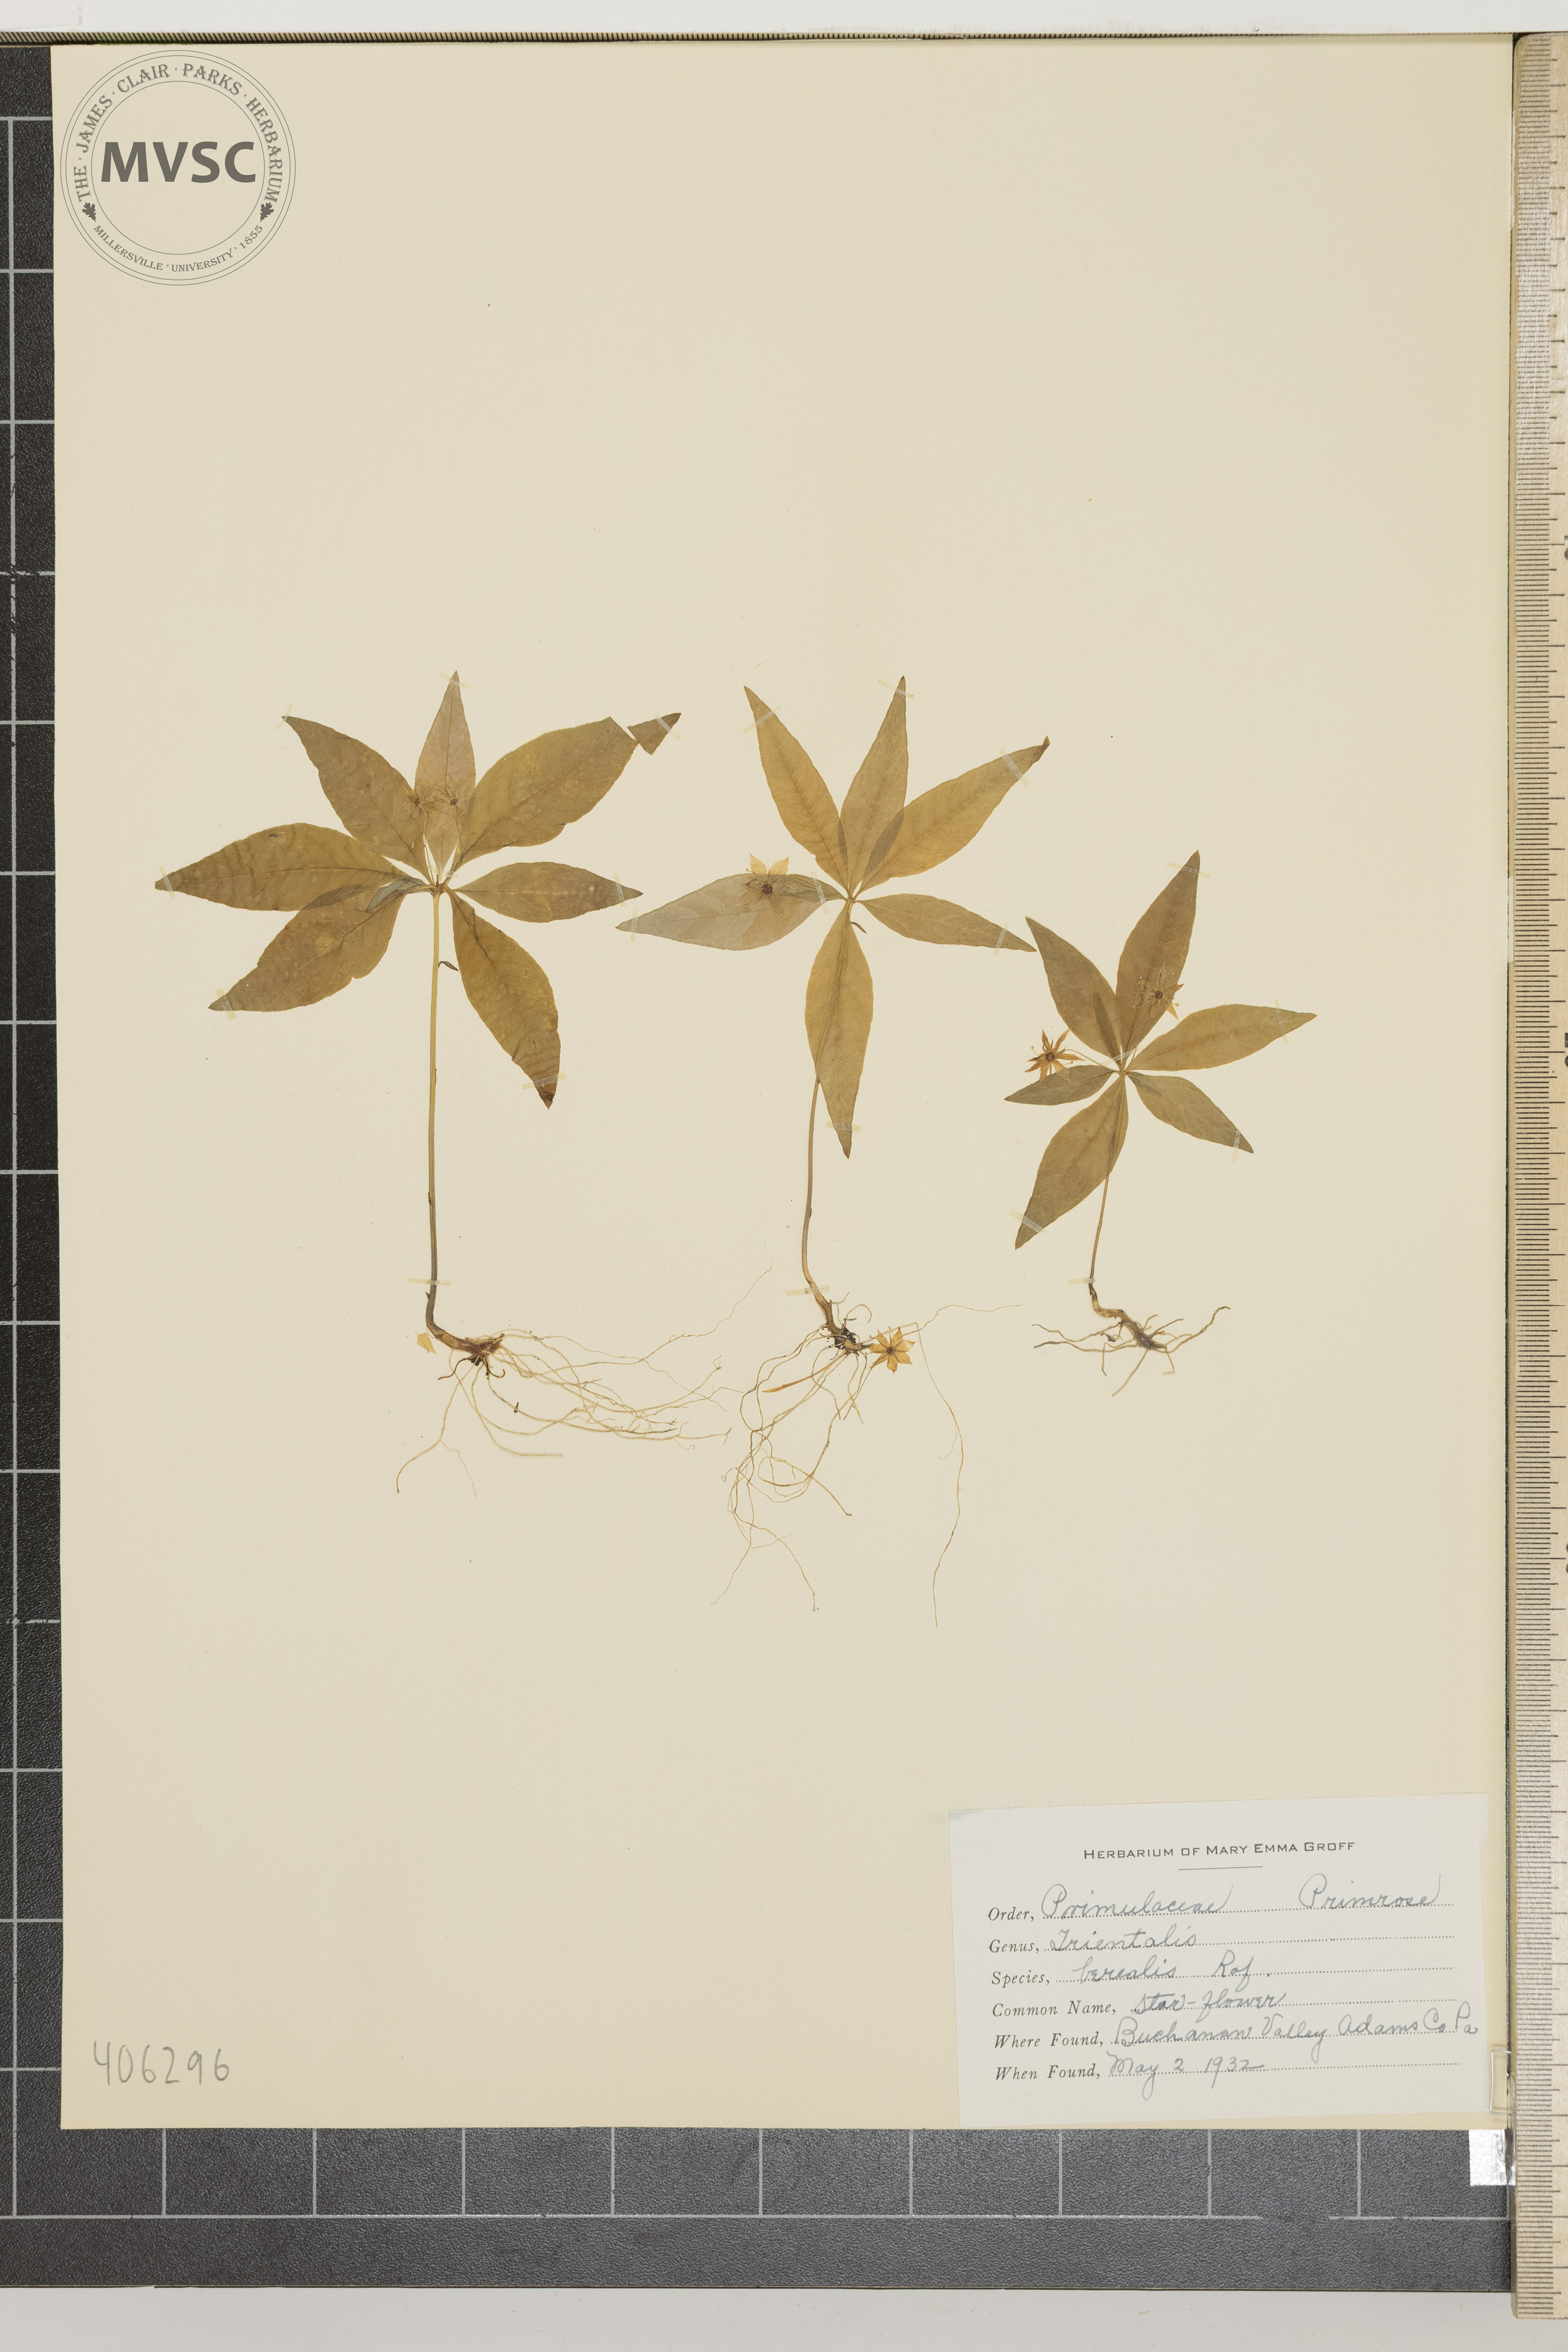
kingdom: Plantae
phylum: Tracheophyta
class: Magnoliopsida
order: Ericales
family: Primulaceae
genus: Lysimachia
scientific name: Lysimachia borealis
